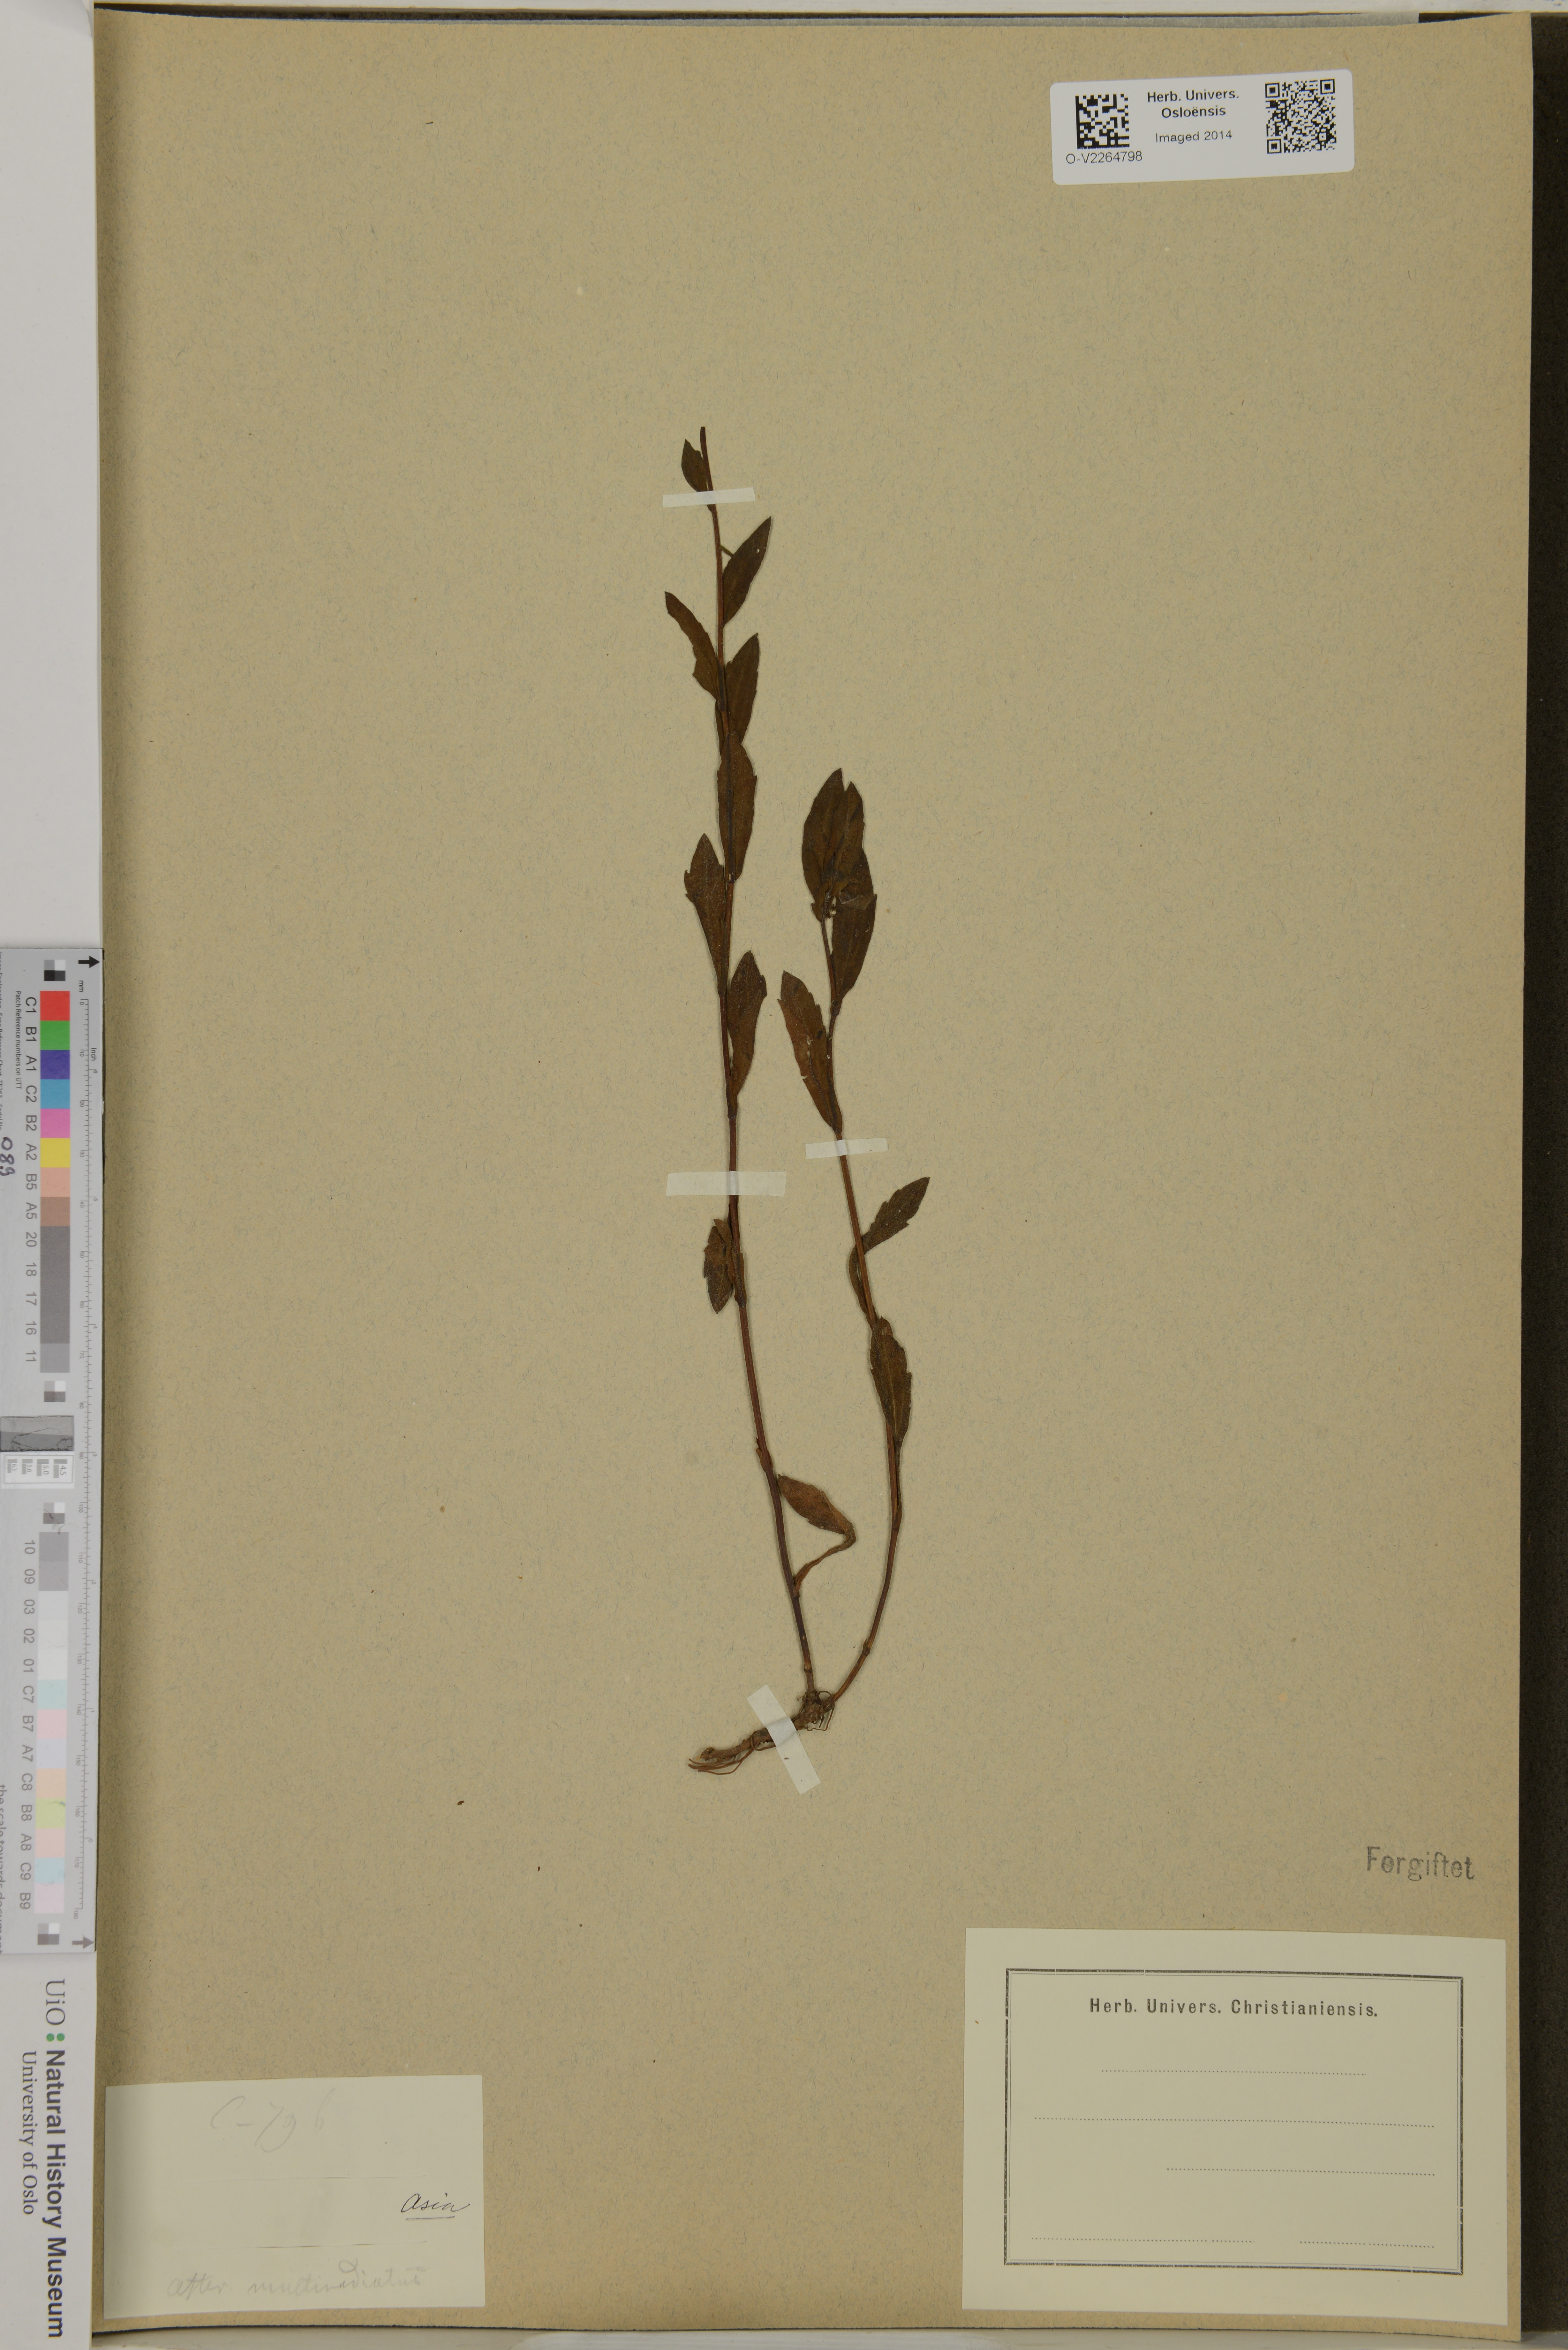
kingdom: Plantae
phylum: Tracheophyta
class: Magnoliopsida
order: Asterales
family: Asteraceae
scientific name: Asteraceae
